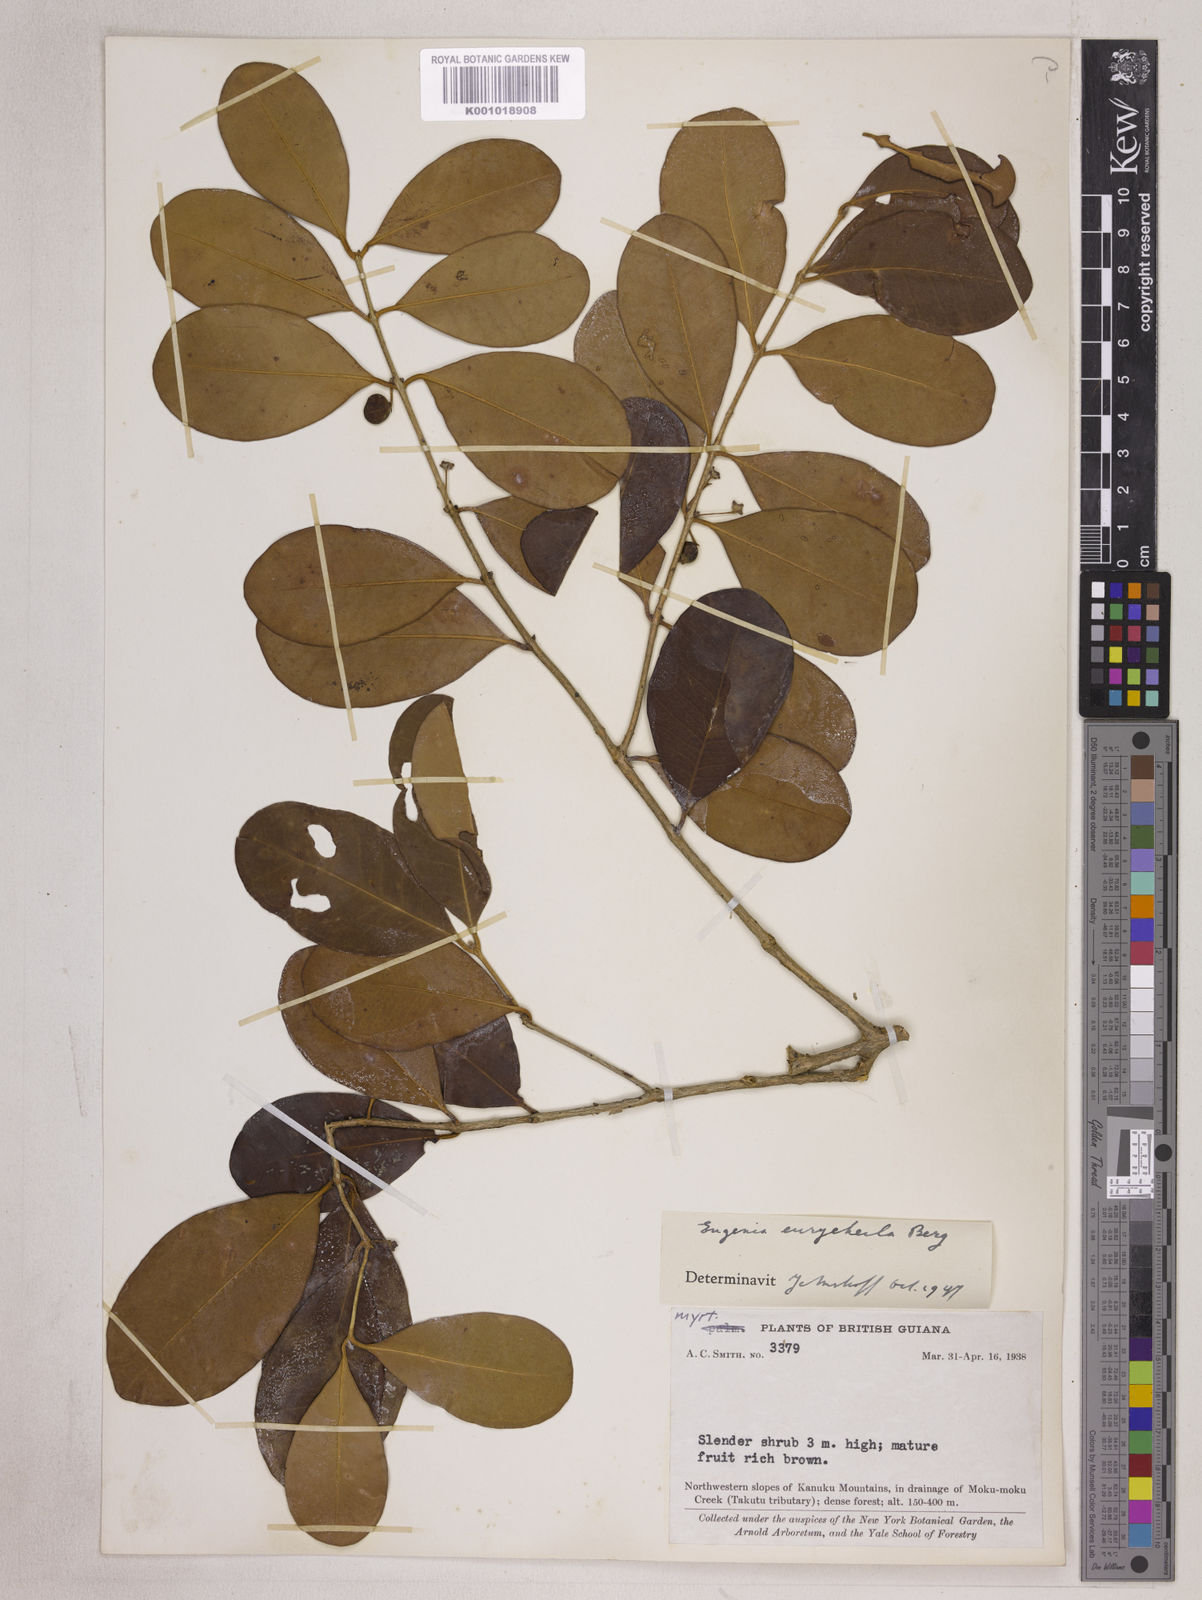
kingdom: Plantae
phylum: Tracheophyta
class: Magnoliopsida
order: Myrtales
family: Myrtaceae
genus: Eugenia
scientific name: Eugenia eurycheila
